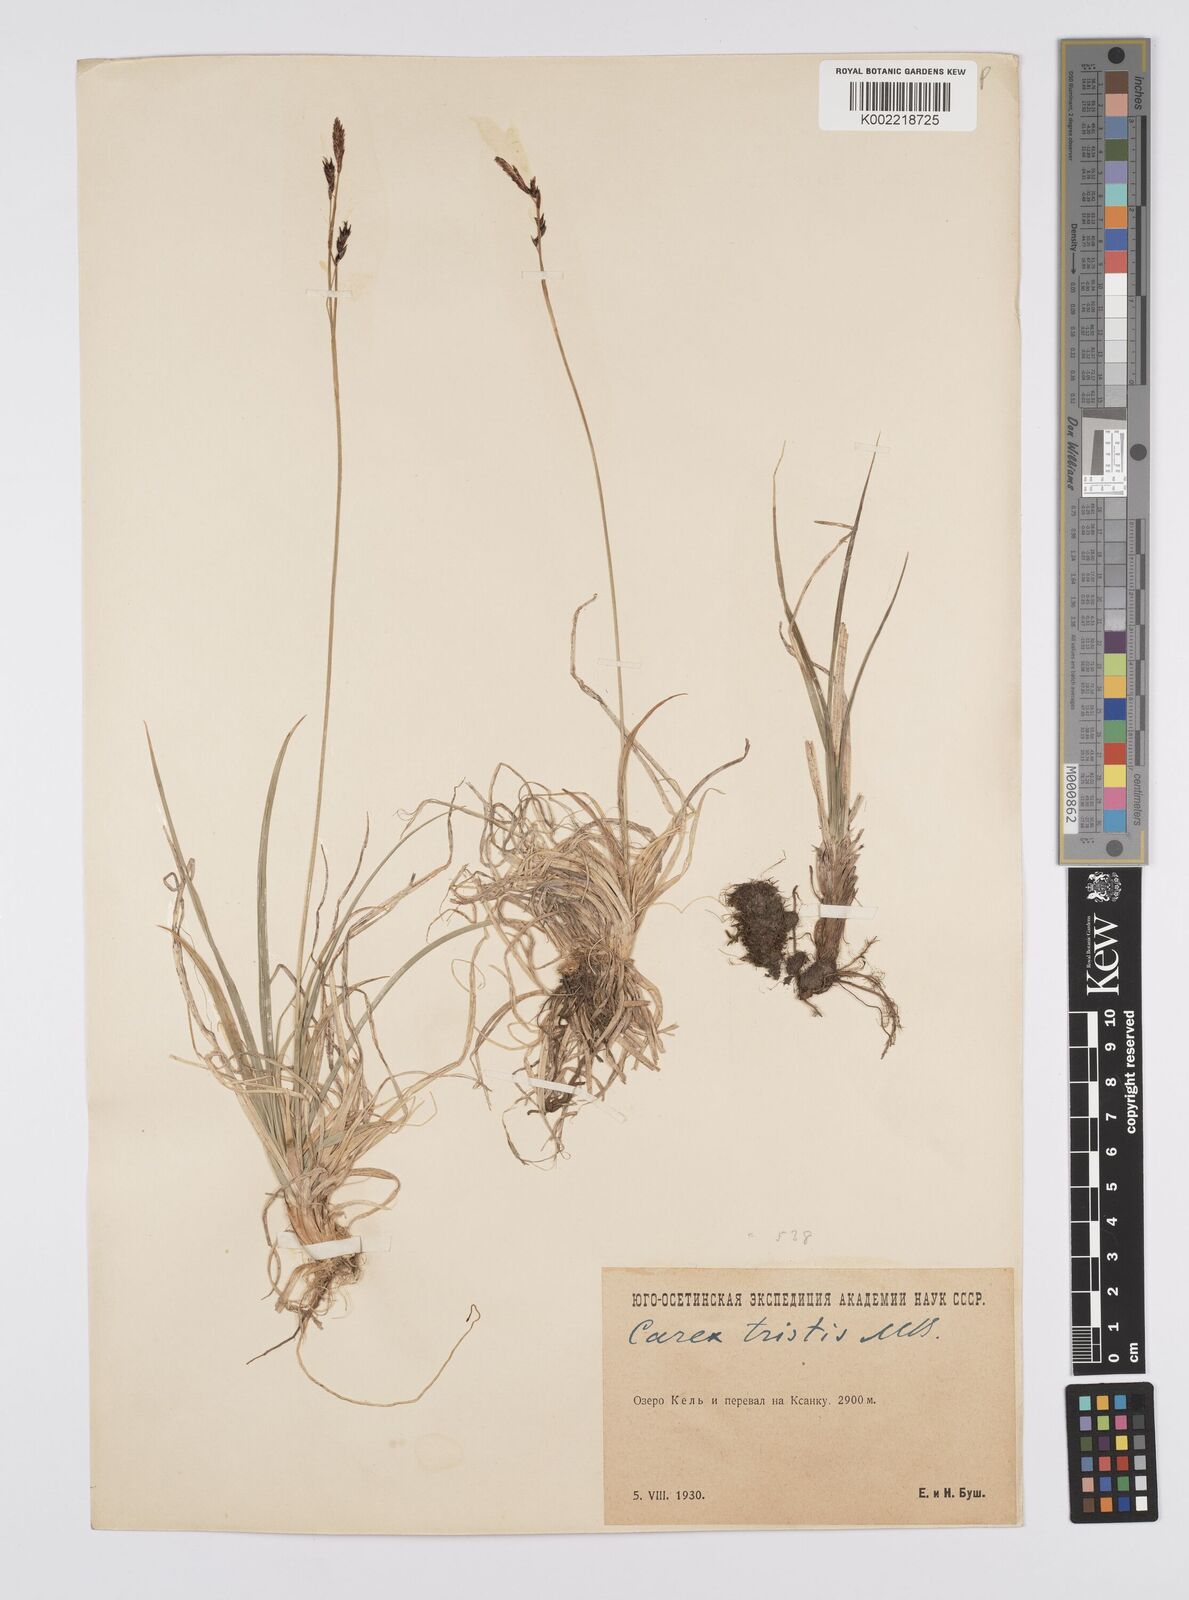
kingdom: Plantae
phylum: Tracheophyta
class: Liliopsida
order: Poales
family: Cyperaceae
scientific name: Cyperaceae
